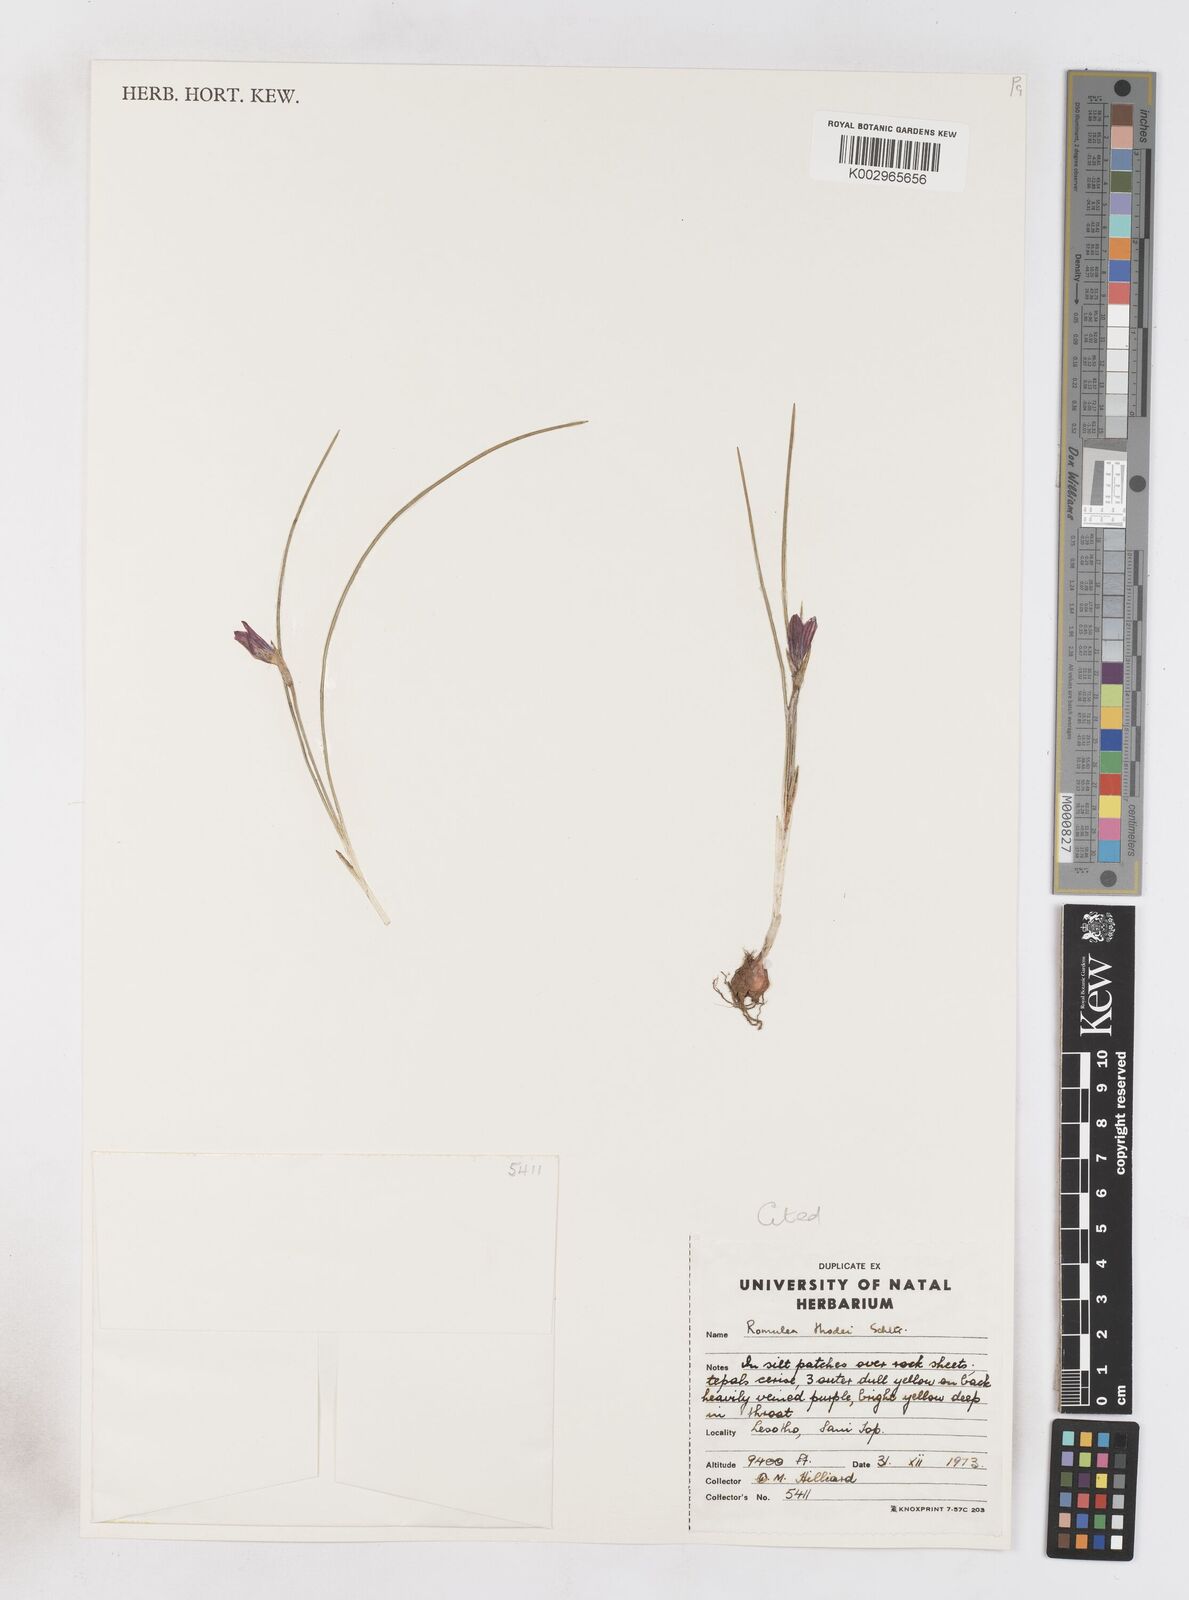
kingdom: Plantae
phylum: Tracheophyta
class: Liliopsida
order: Asparagales
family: Iridaceae
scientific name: Iridaceae
